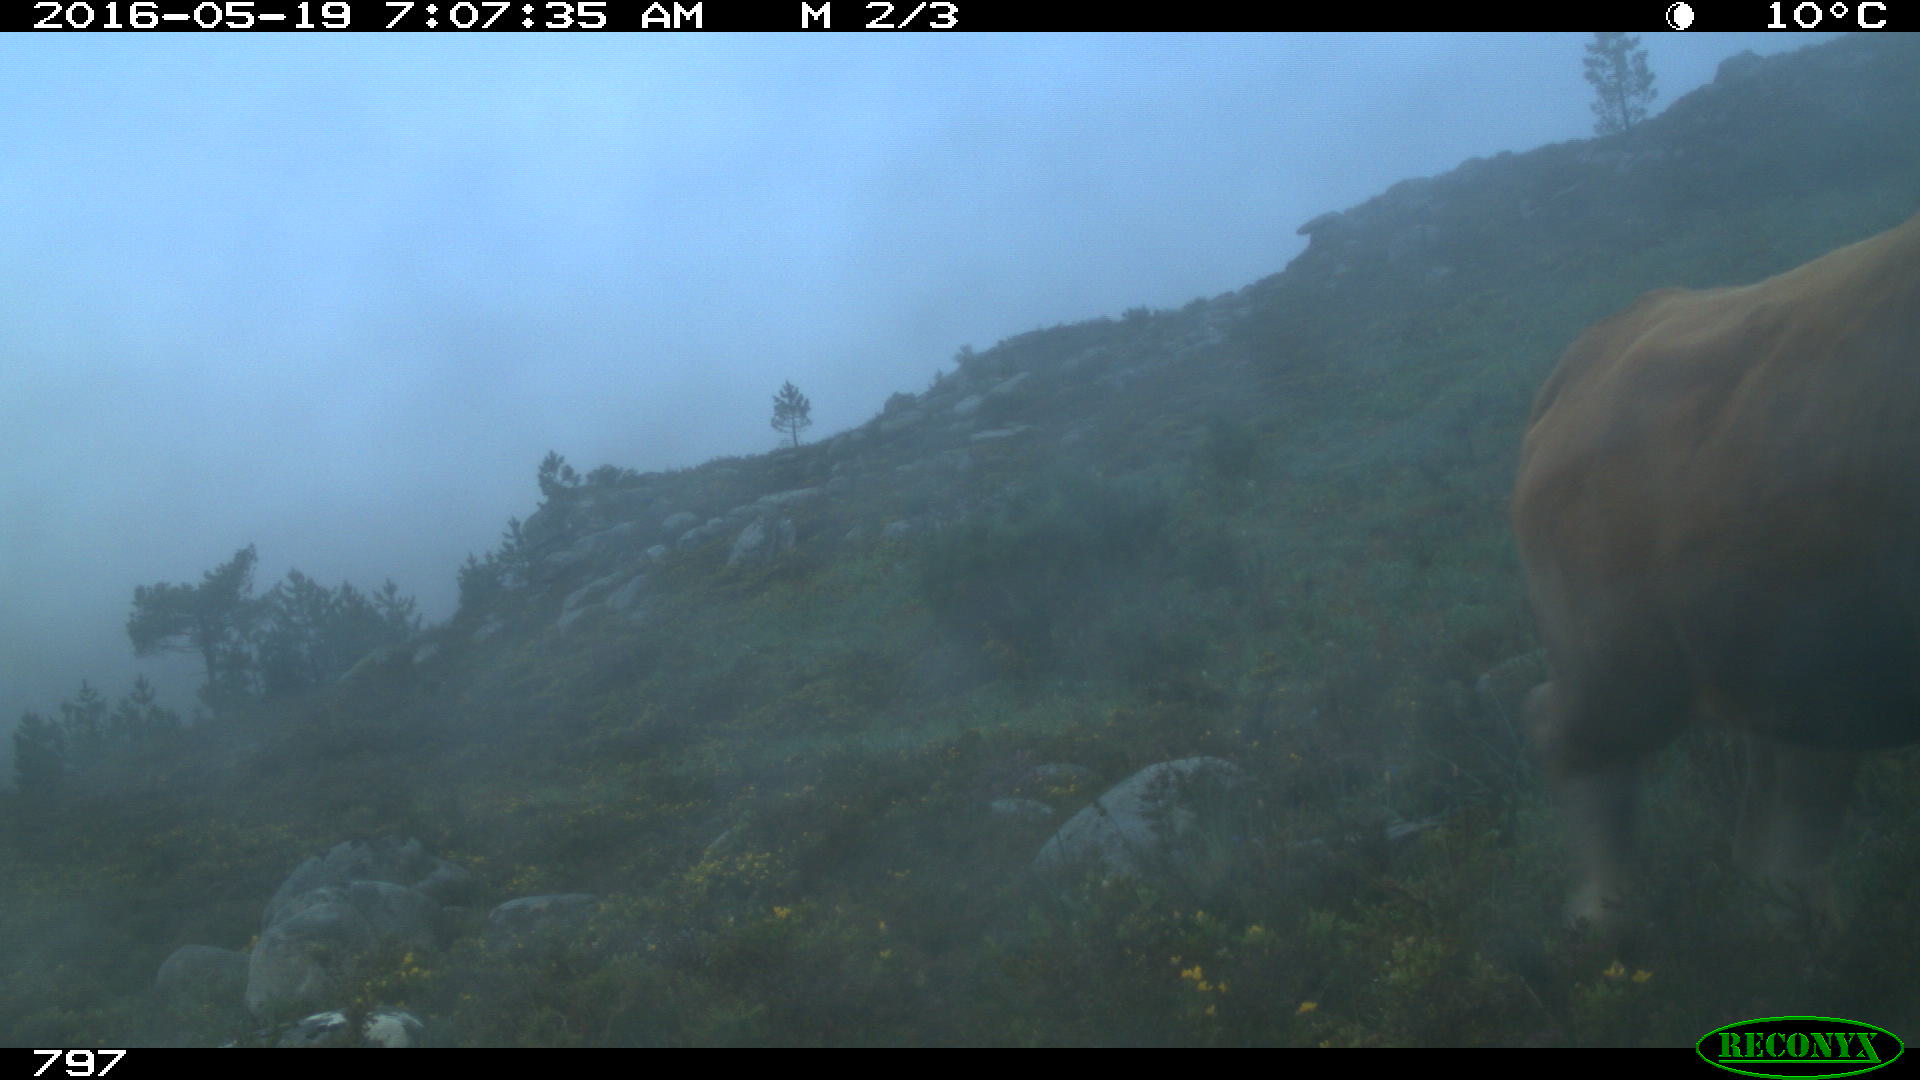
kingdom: Animalia
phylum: Chordata
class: Mammalia
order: Artiodactyla
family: Bovidae
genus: Bos
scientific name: Bos taurus
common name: Domesticated cattle
